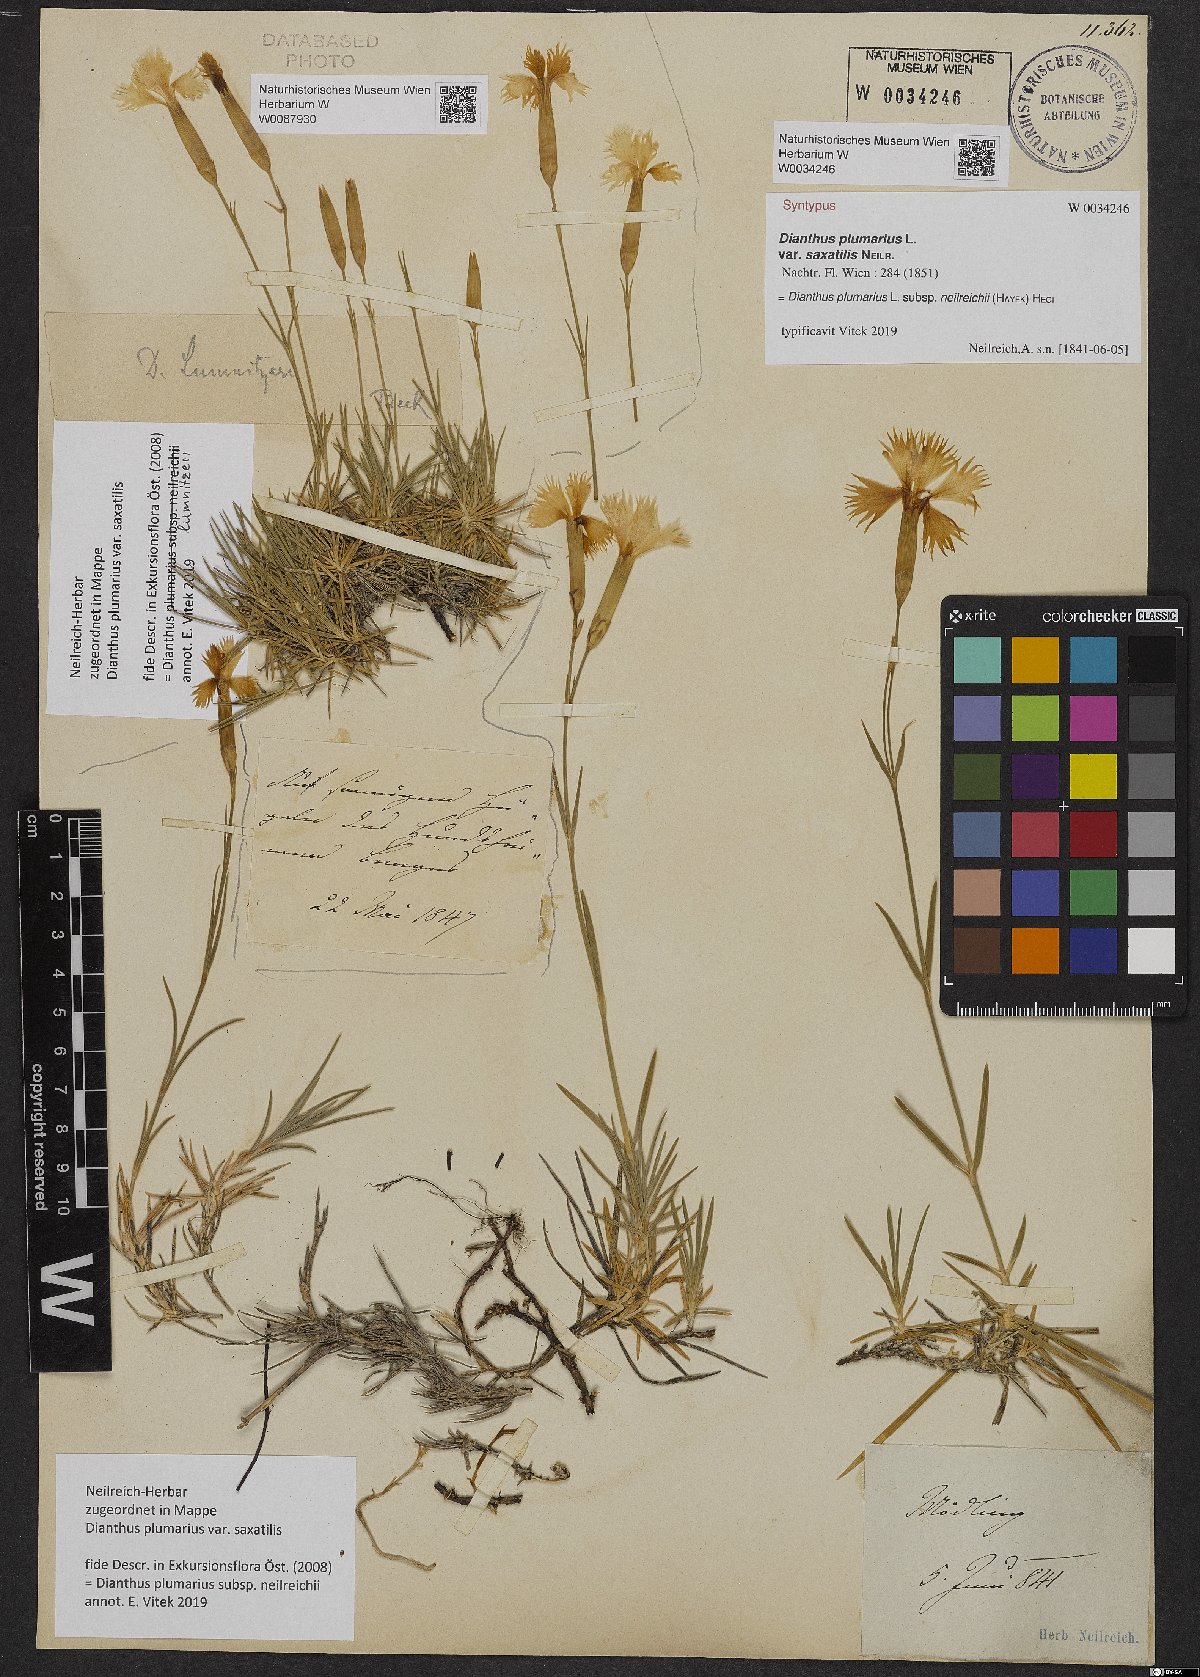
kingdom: Plantae
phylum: Tracheophyta
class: Magnoliopsida
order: Caryophyllales
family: Caryophyllaceae
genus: Dianthus
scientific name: Dianthus plumarius
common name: Pink
